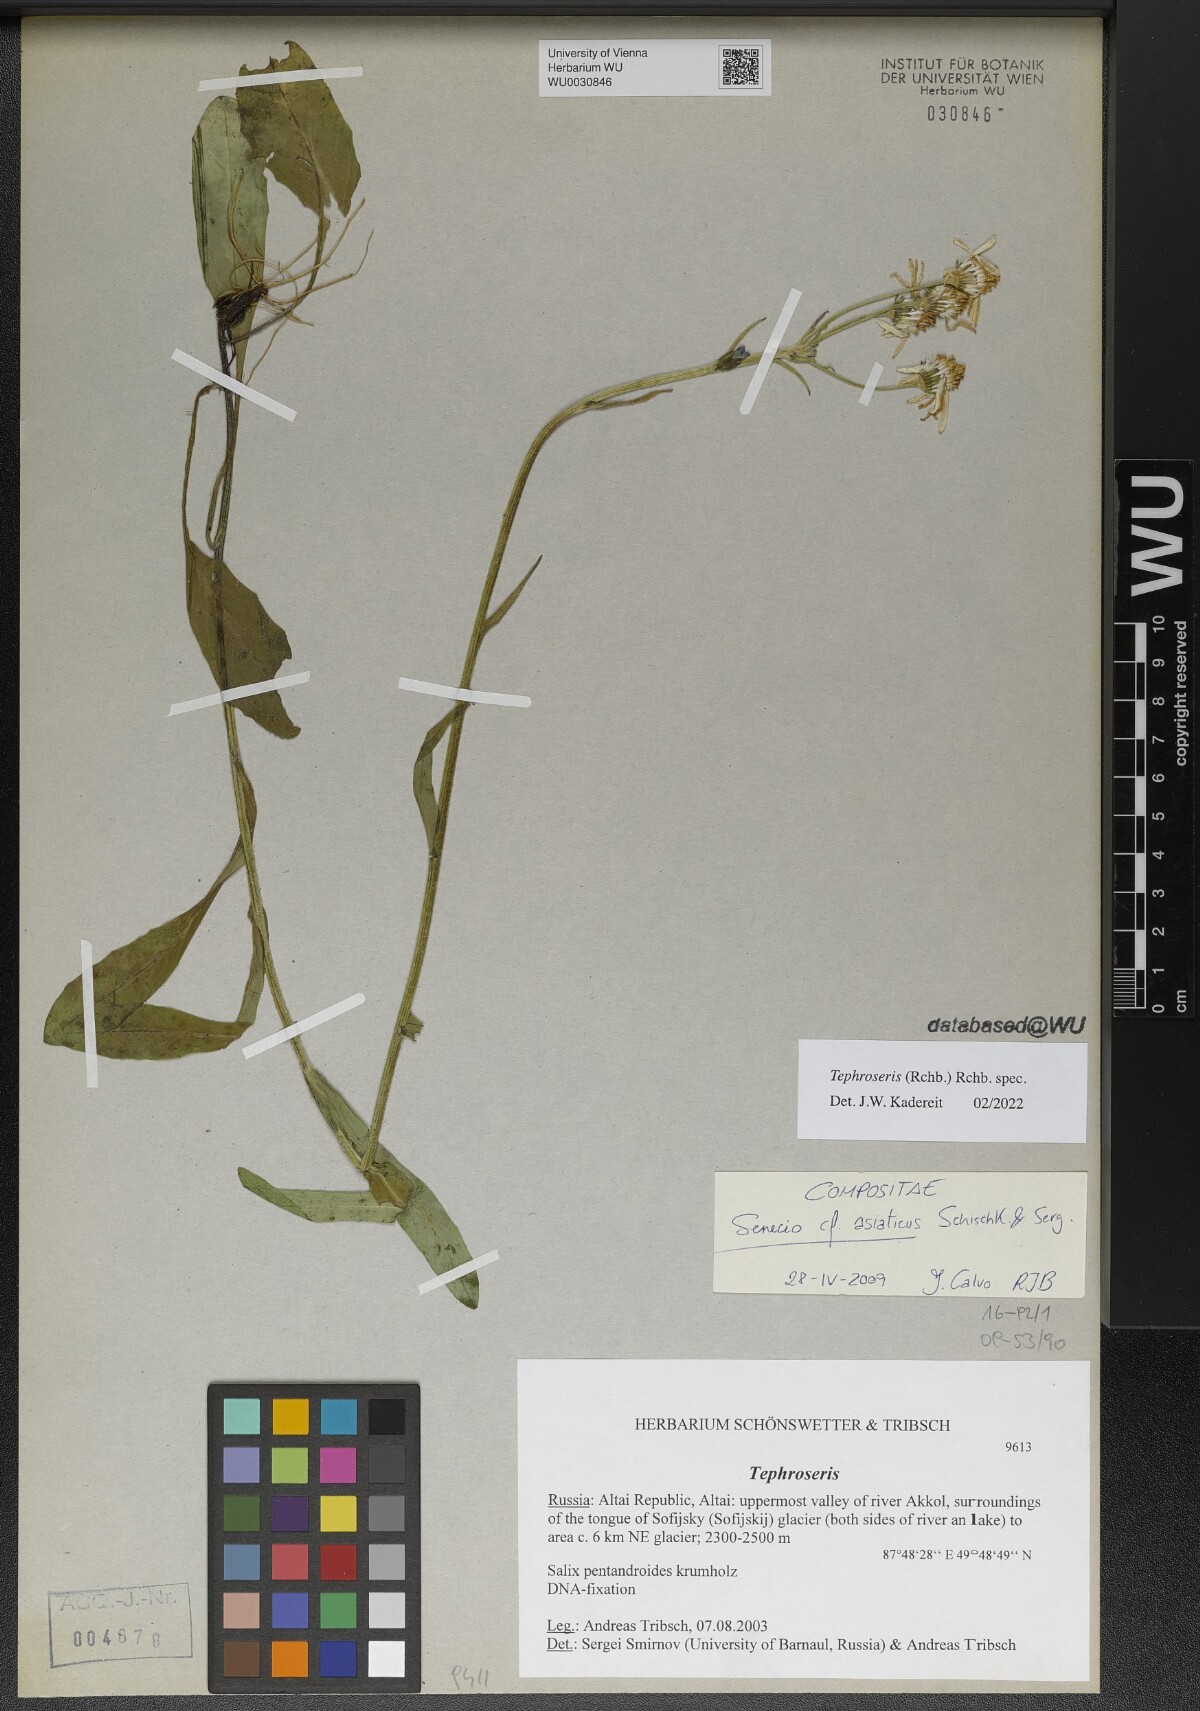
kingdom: Plantae
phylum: Tracheophyta
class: Magnoliopsida
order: Asterales
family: Asteraceae
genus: Tephroseris
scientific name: Tephroseris
